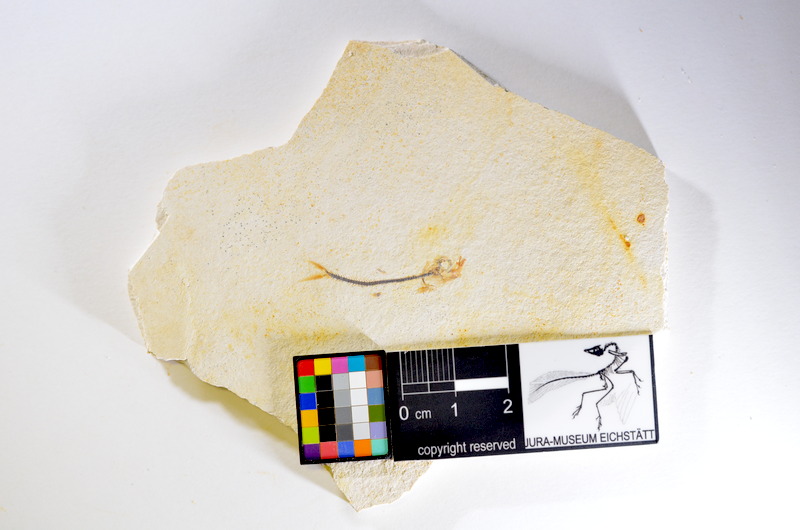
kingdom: Animalia
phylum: Chordata
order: Salmoniformes
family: Orthogonikleithridae
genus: Orthogonikleithrus
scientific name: Orthogonikleithrus hoelli
